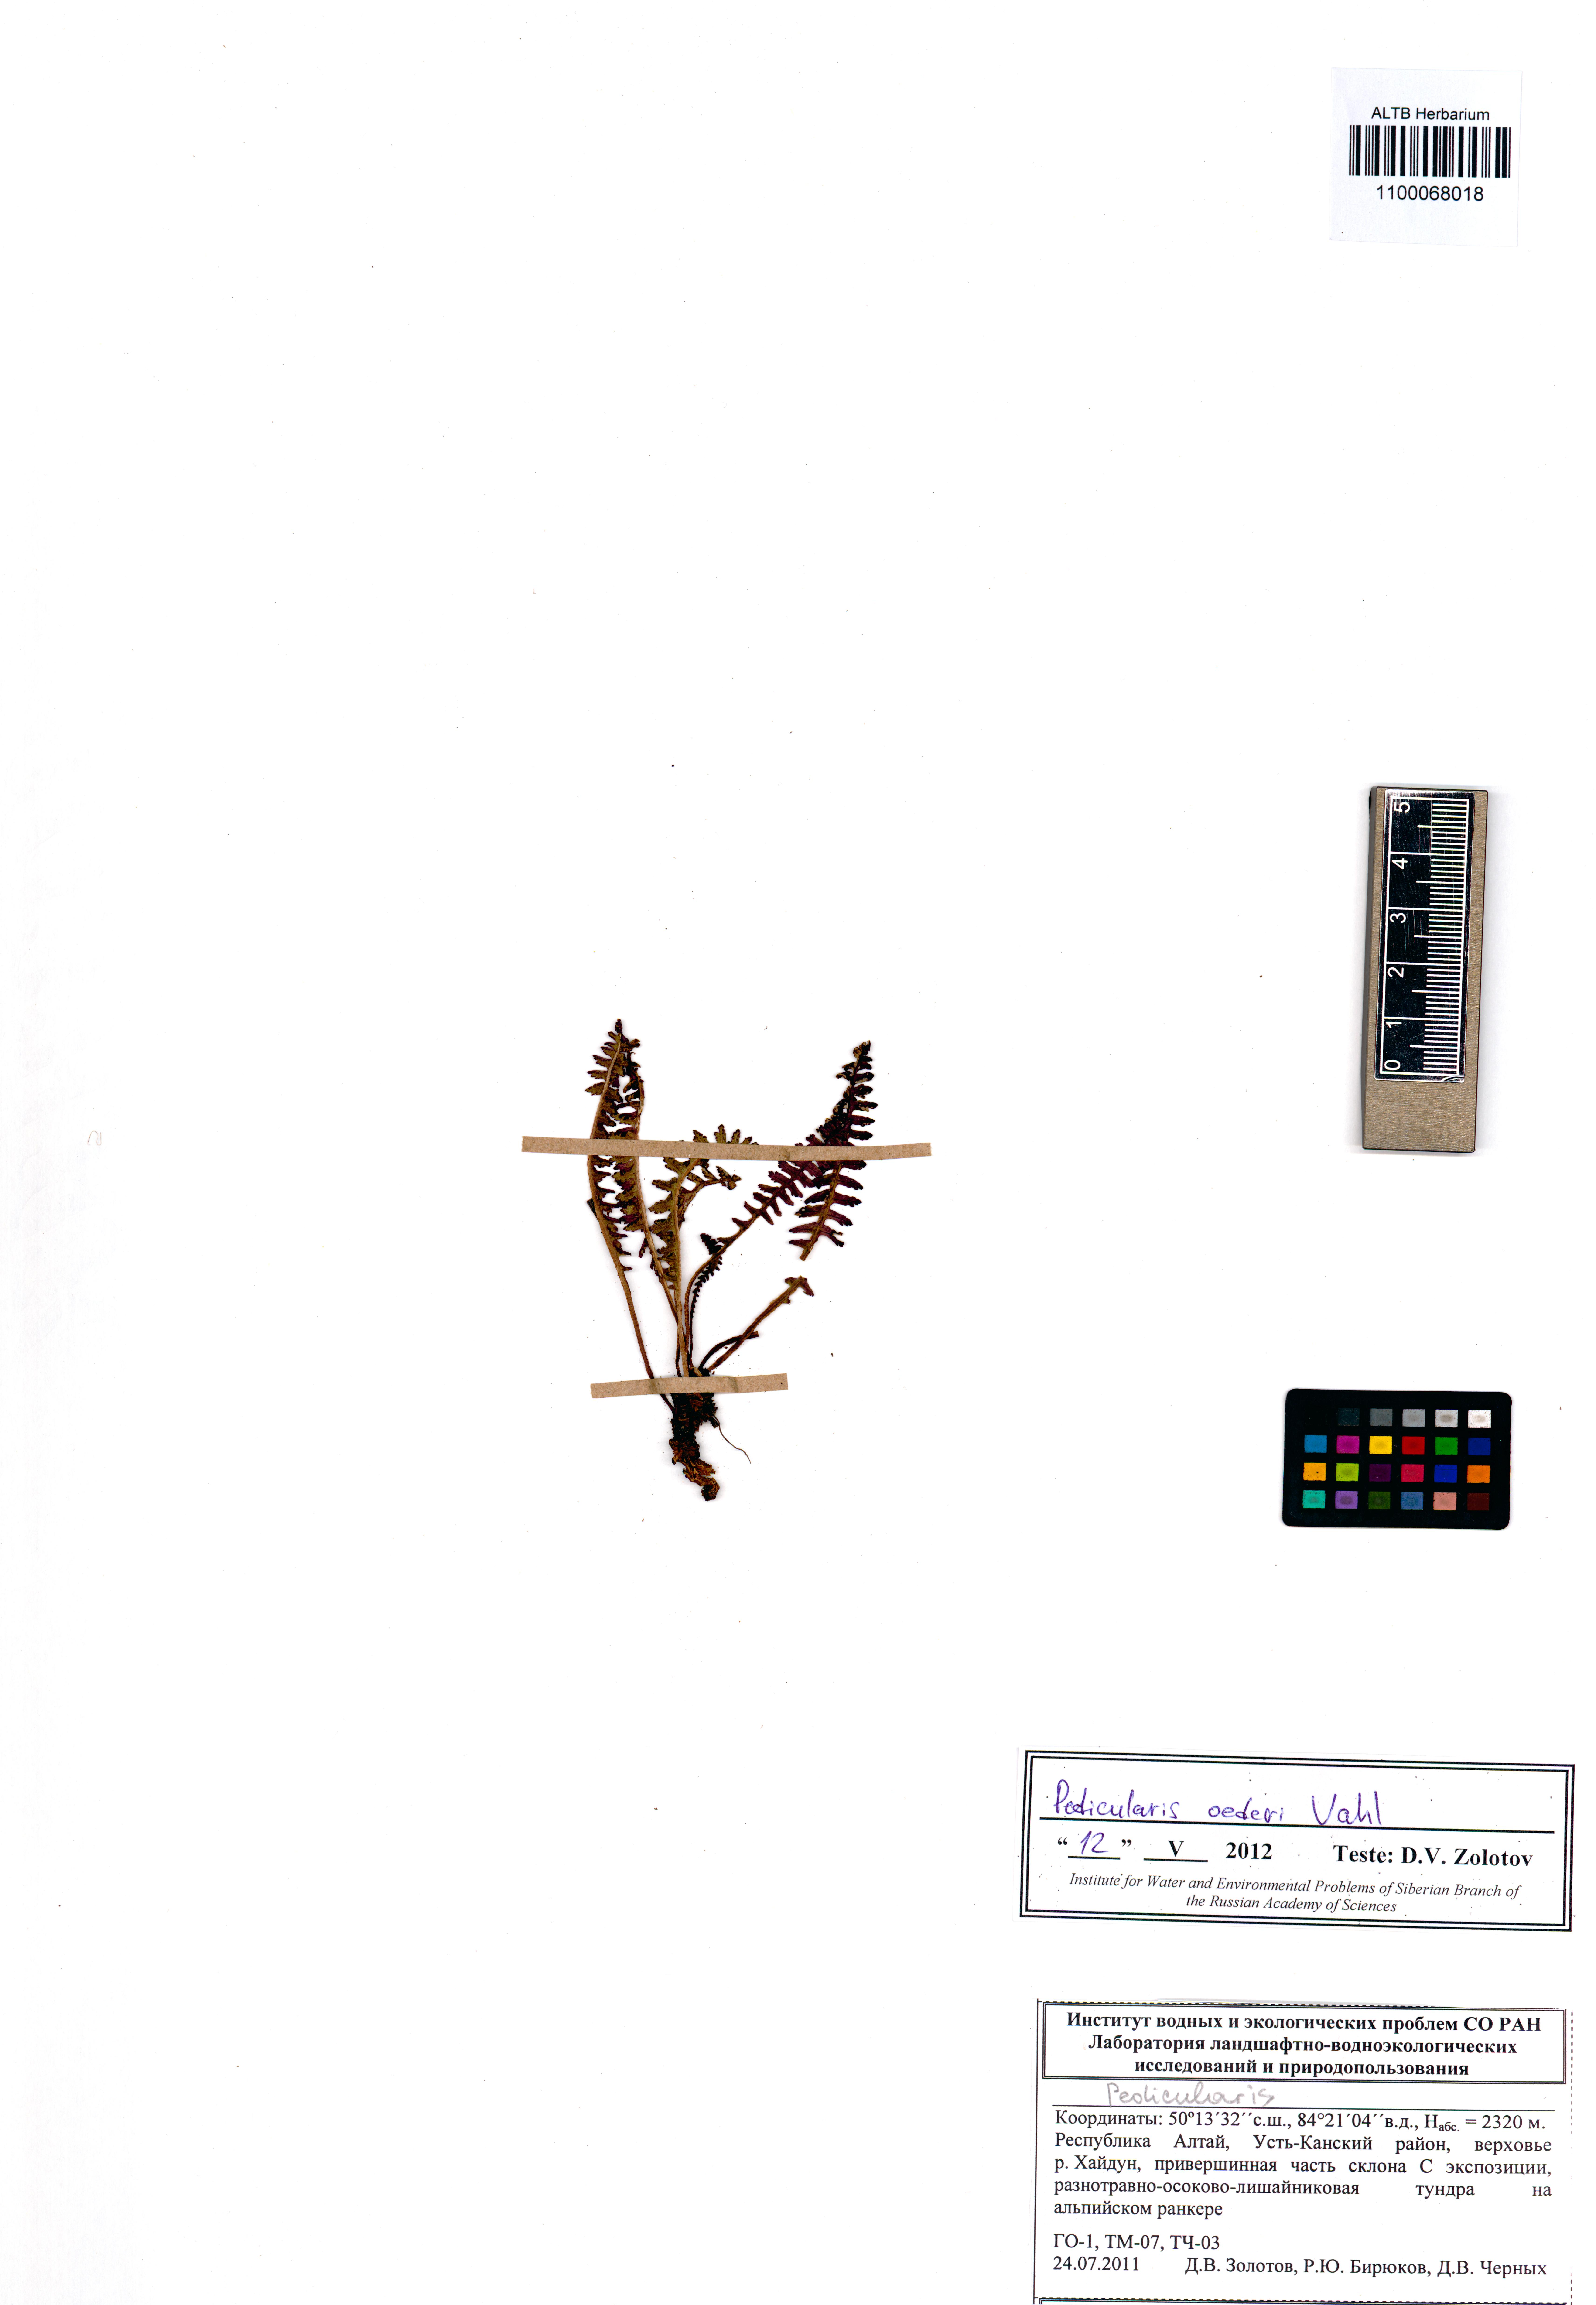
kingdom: Plantae
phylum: Tracheophyta
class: Magnoliopsida
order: Lamiales
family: Orobanchaceae
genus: Pedicularis
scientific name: Pedicularis oederi
